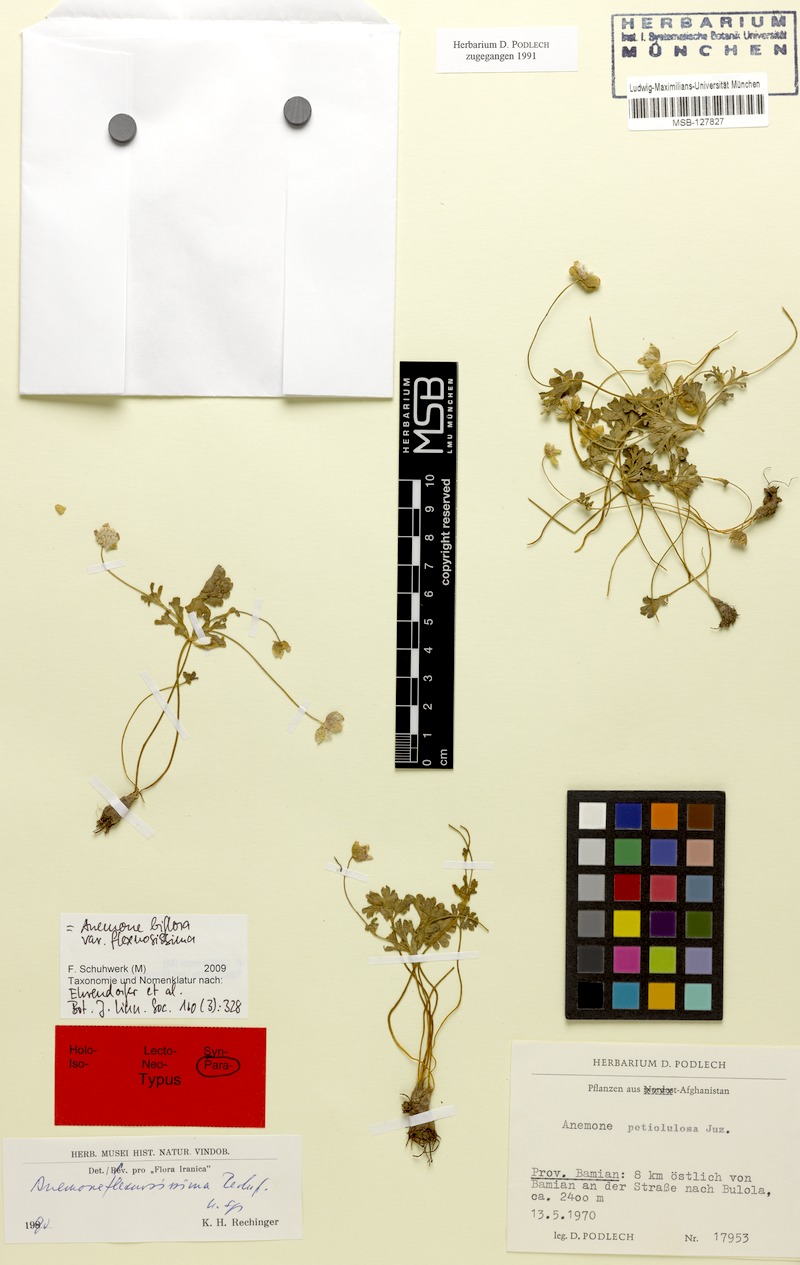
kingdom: Plantae
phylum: Tracheophyta
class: Magnoliopsida
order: Ranunculales
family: Ranunculaceae
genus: Anemone
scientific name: Anemone biflora
